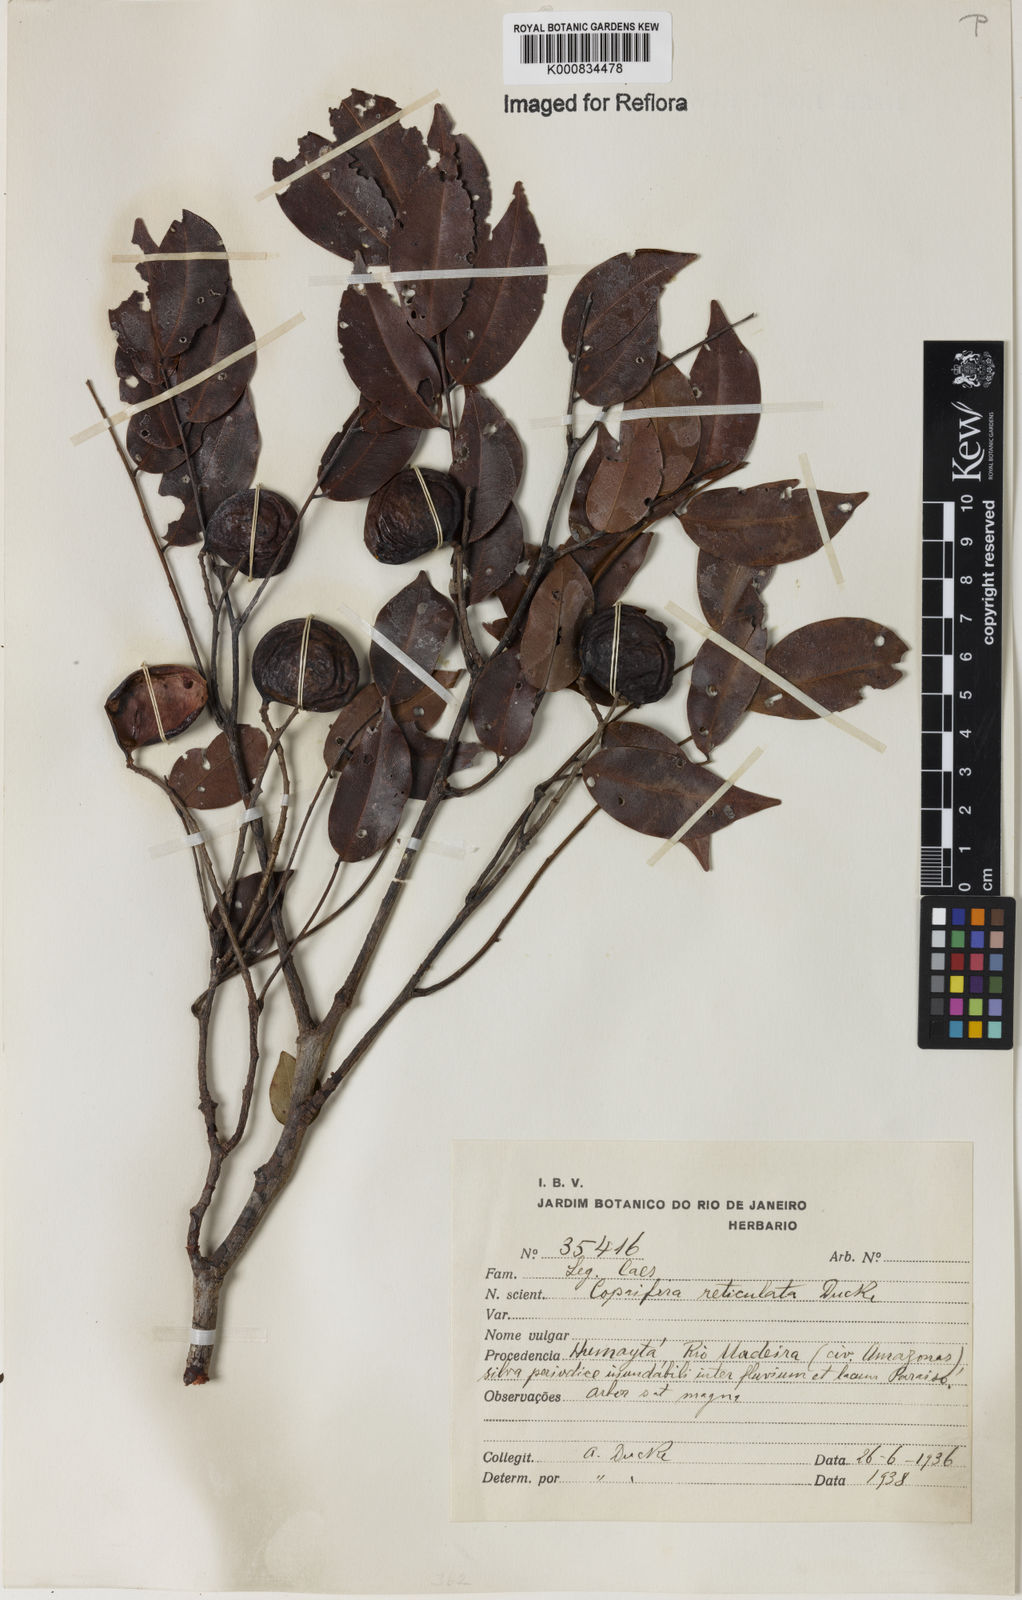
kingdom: Plantae
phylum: Tracheophyta
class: Magnoliopsida
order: Fabales
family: Fabaceae
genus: Copaifera
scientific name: Copaifera copaibo
